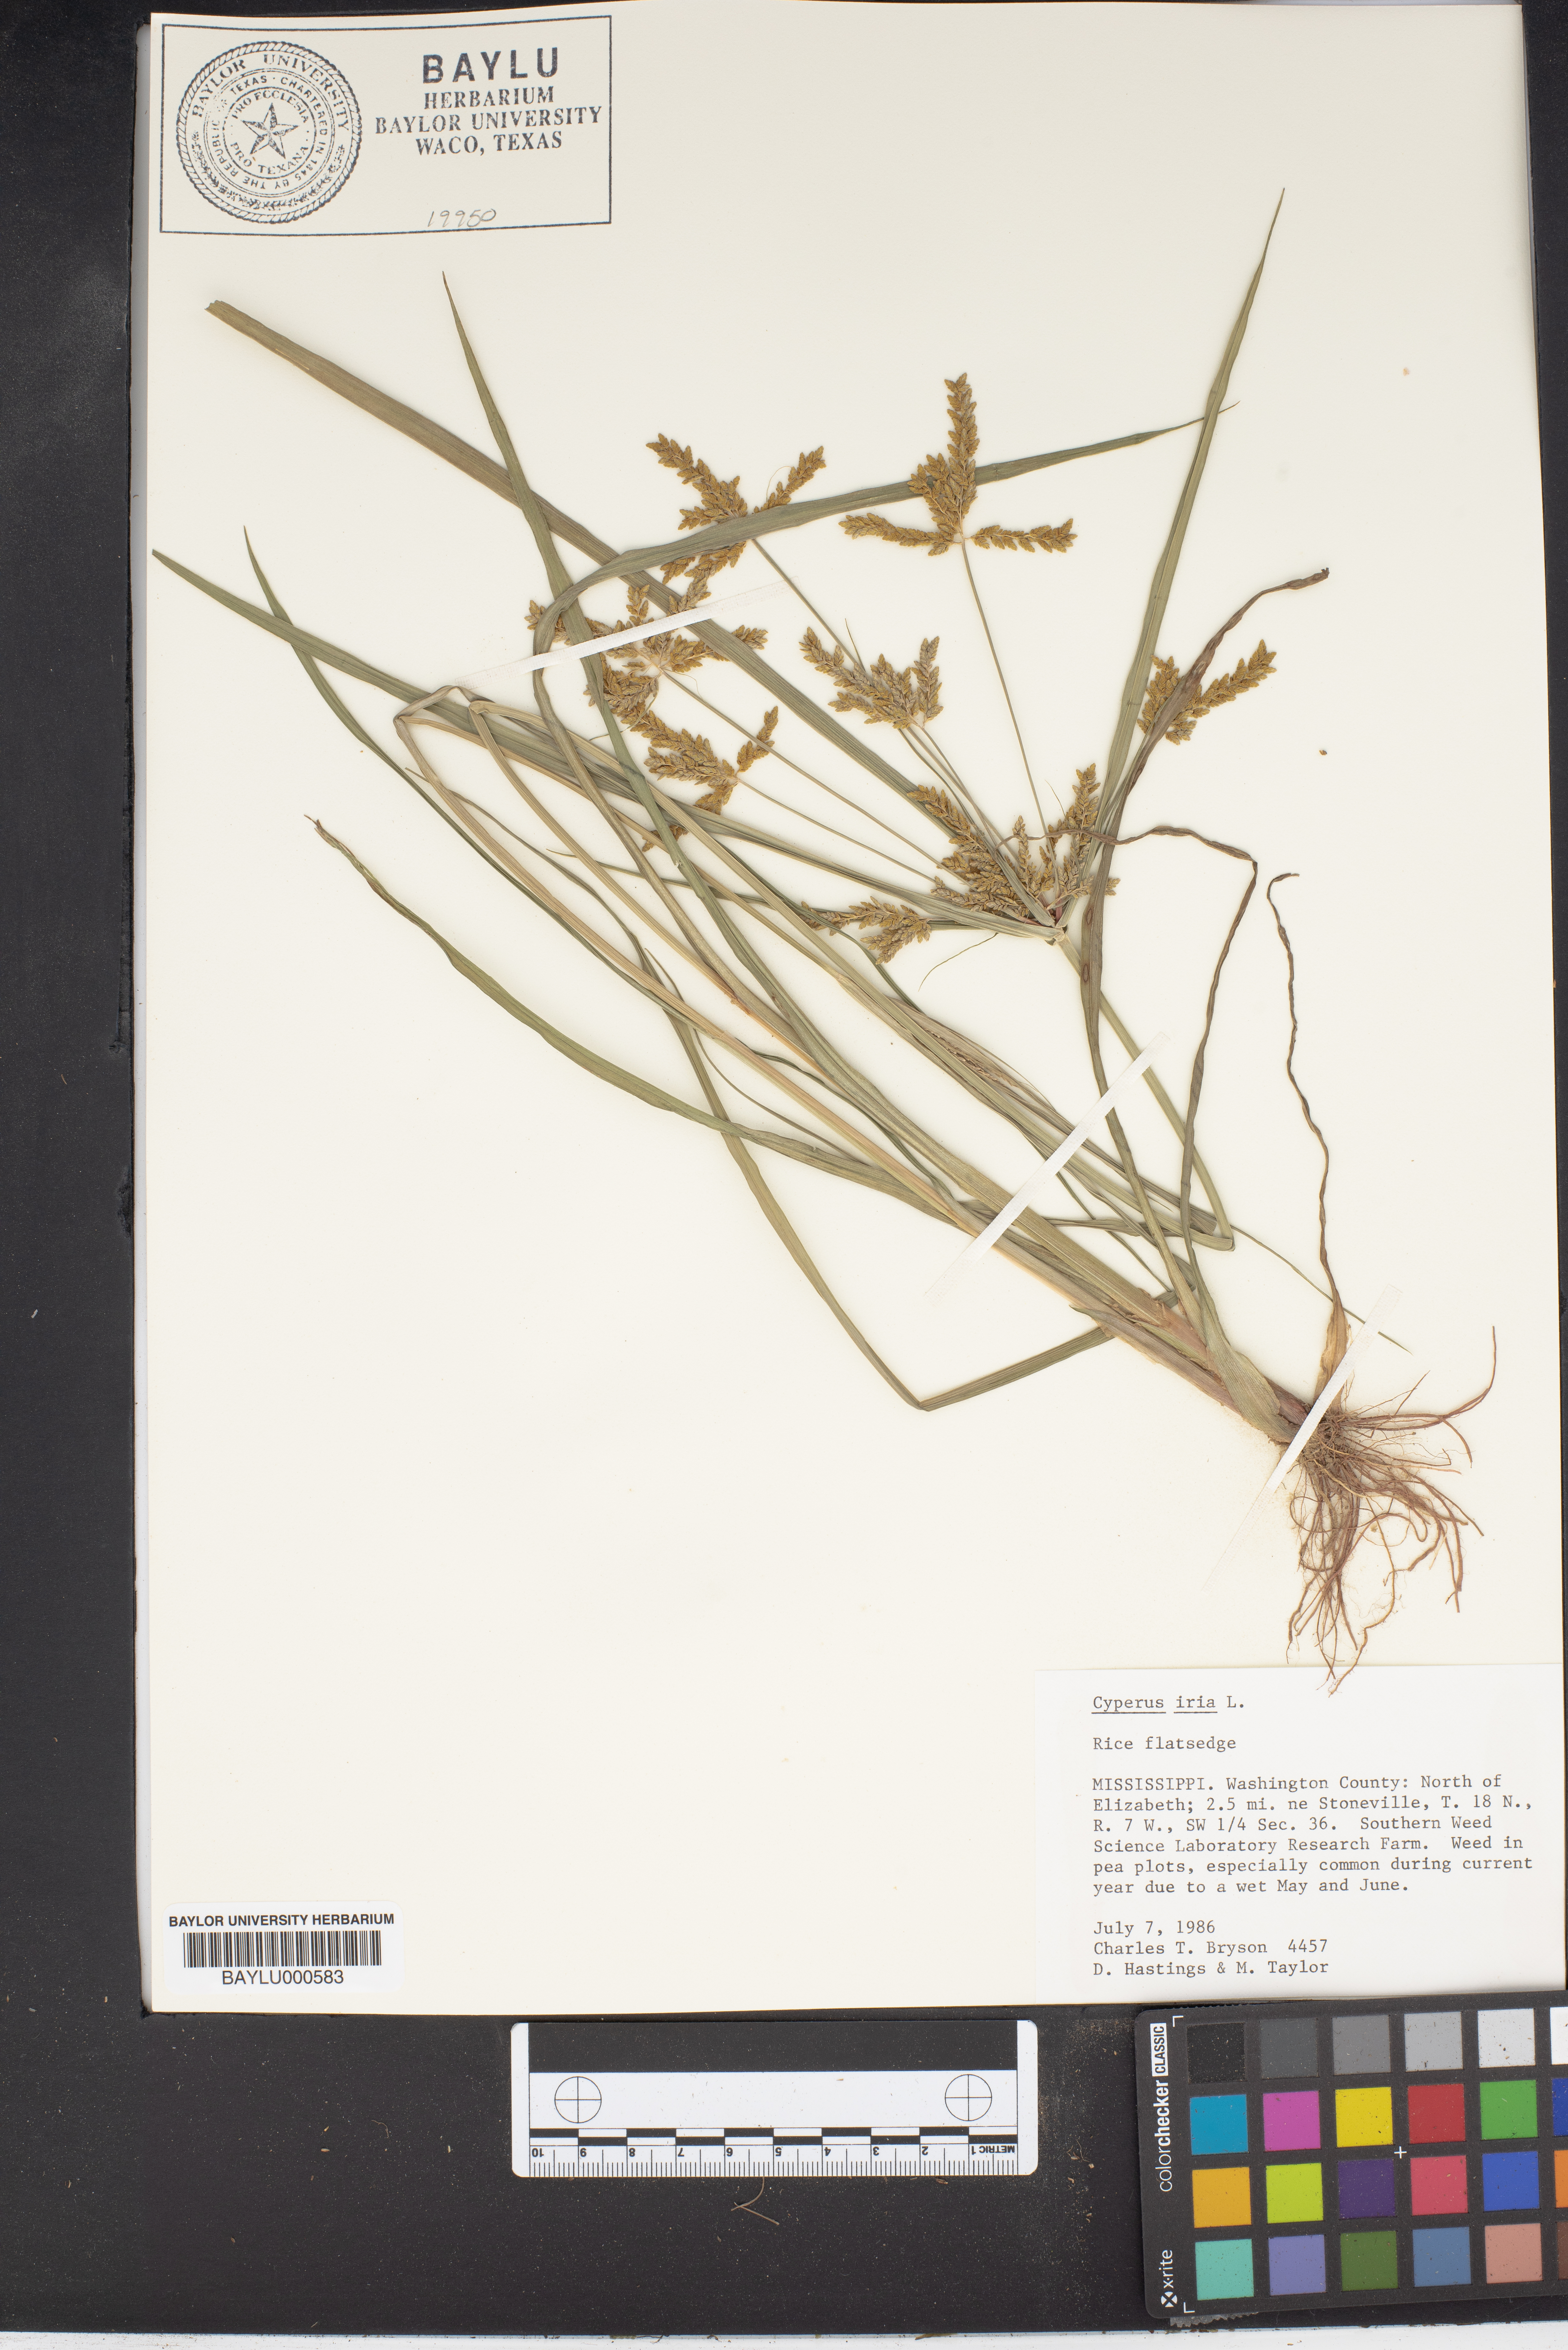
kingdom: Plantae
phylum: Tracheophyta
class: Liliopsida
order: Poales
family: Cyperaceae
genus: Cyperus
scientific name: Cyperus iria
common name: Ricefield flatsedge
